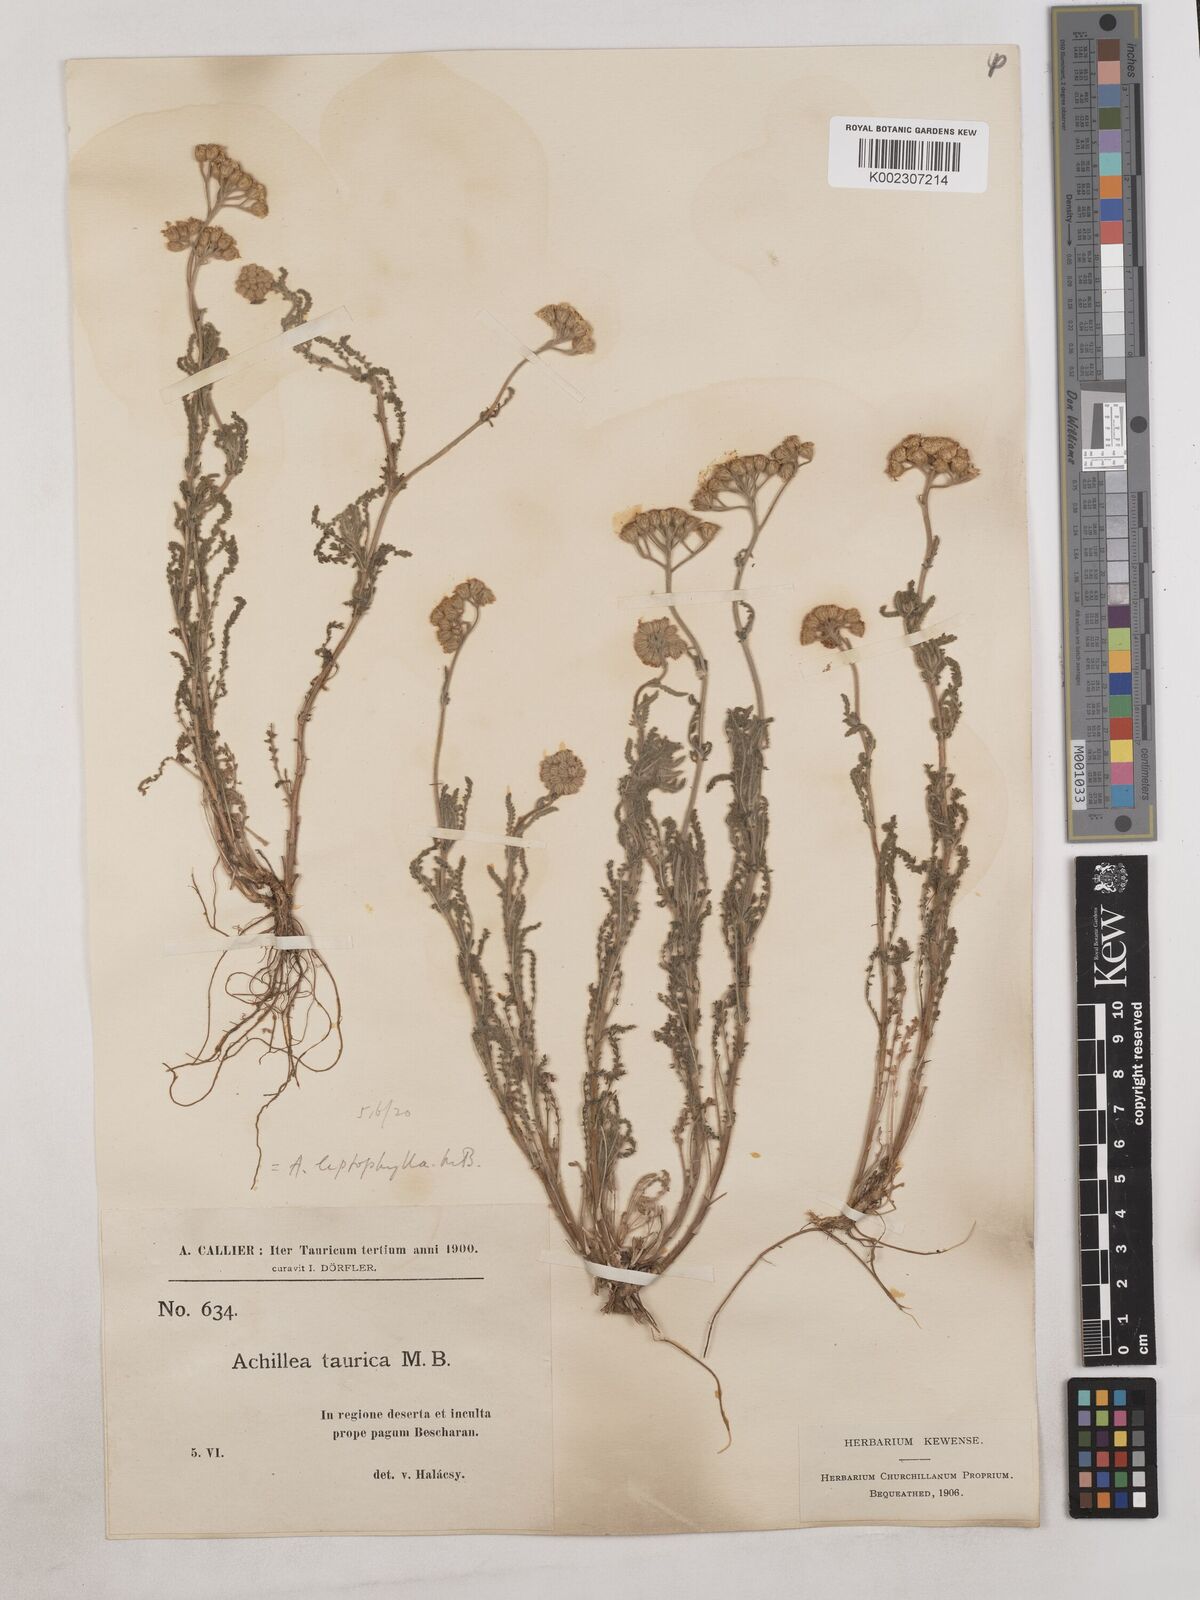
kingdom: Plantae
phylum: Tracheophyta
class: Magnoliopsida
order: Asterales
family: Asteraceae
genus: Achillea
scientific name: Achillea leptophylla
